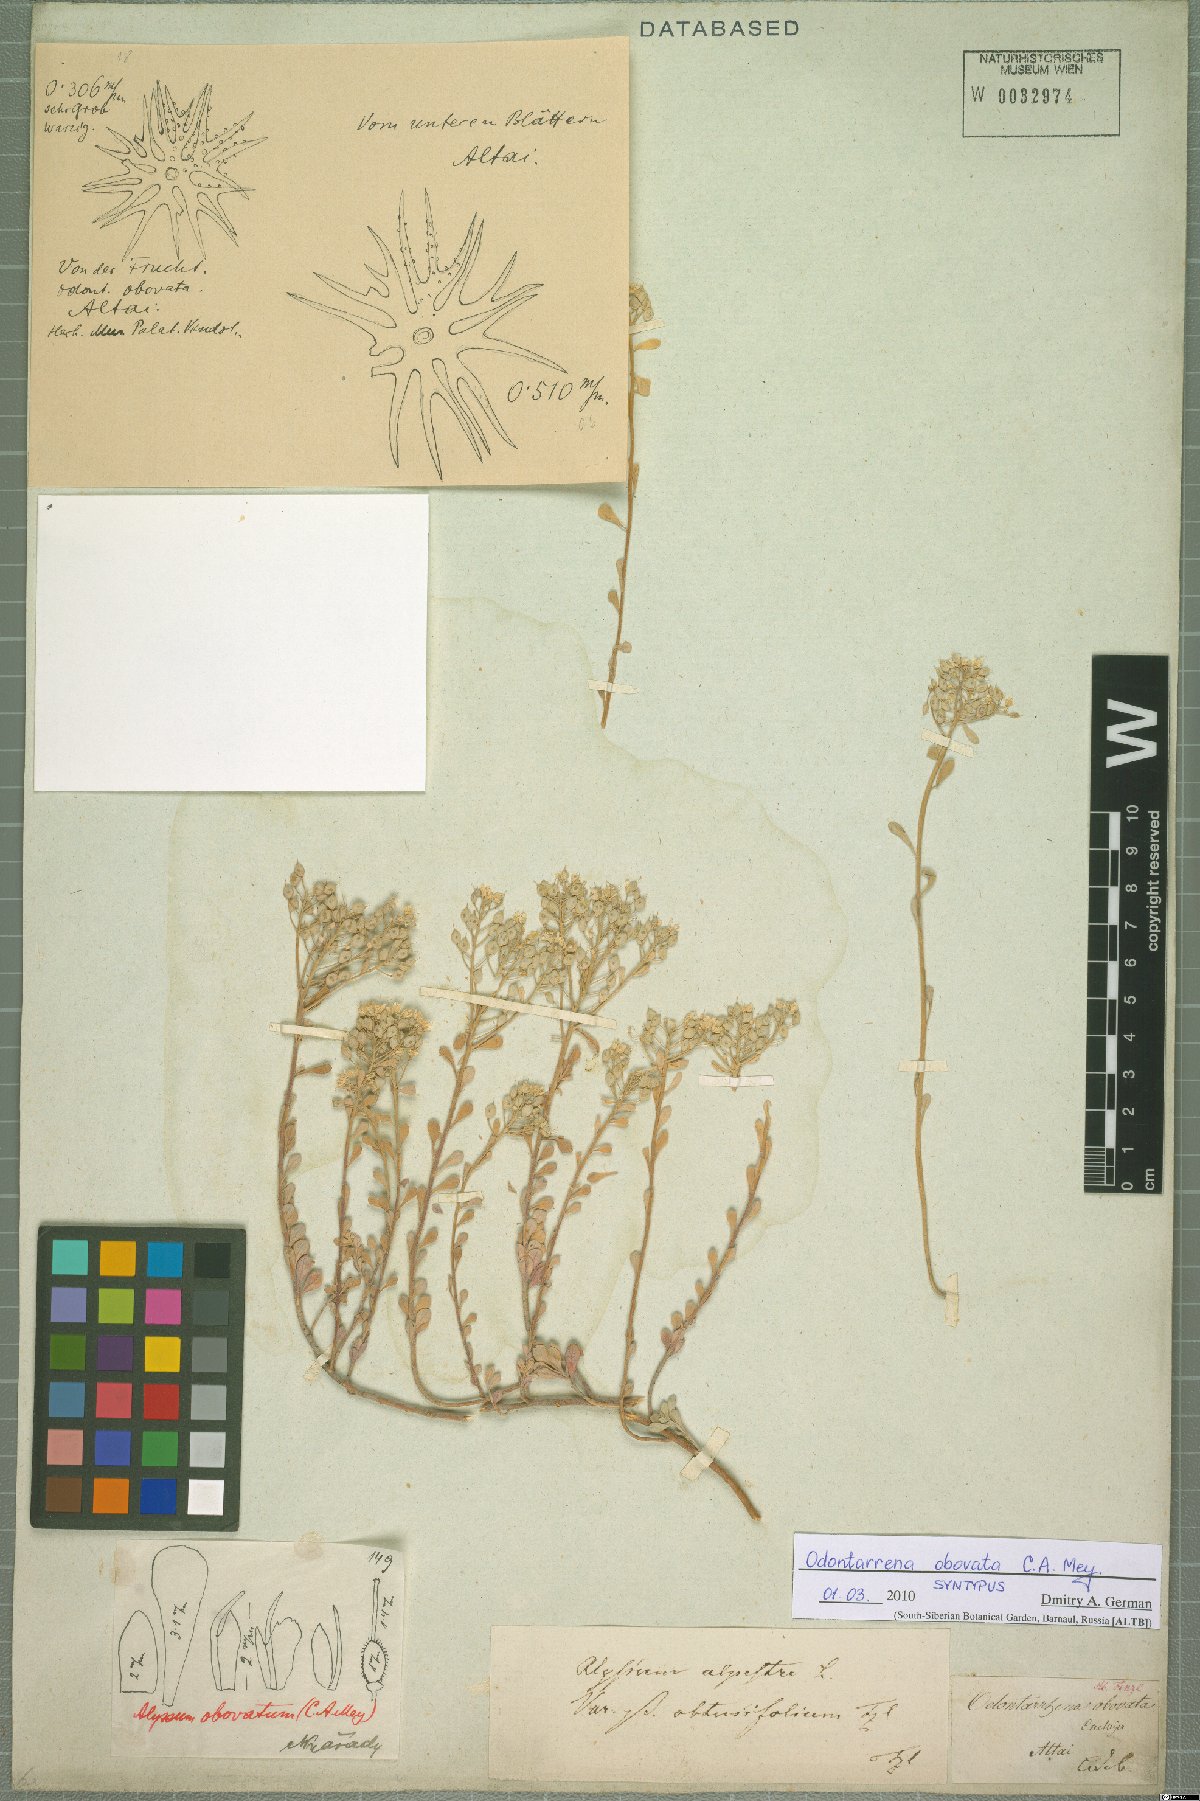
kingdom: Plantae
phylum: Tracheophyta
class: Magnoliopsida
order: Brassicales
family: Brassicaceae
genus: Odontarrhena
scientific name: Odontarrhena obovata
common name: American alyssum
